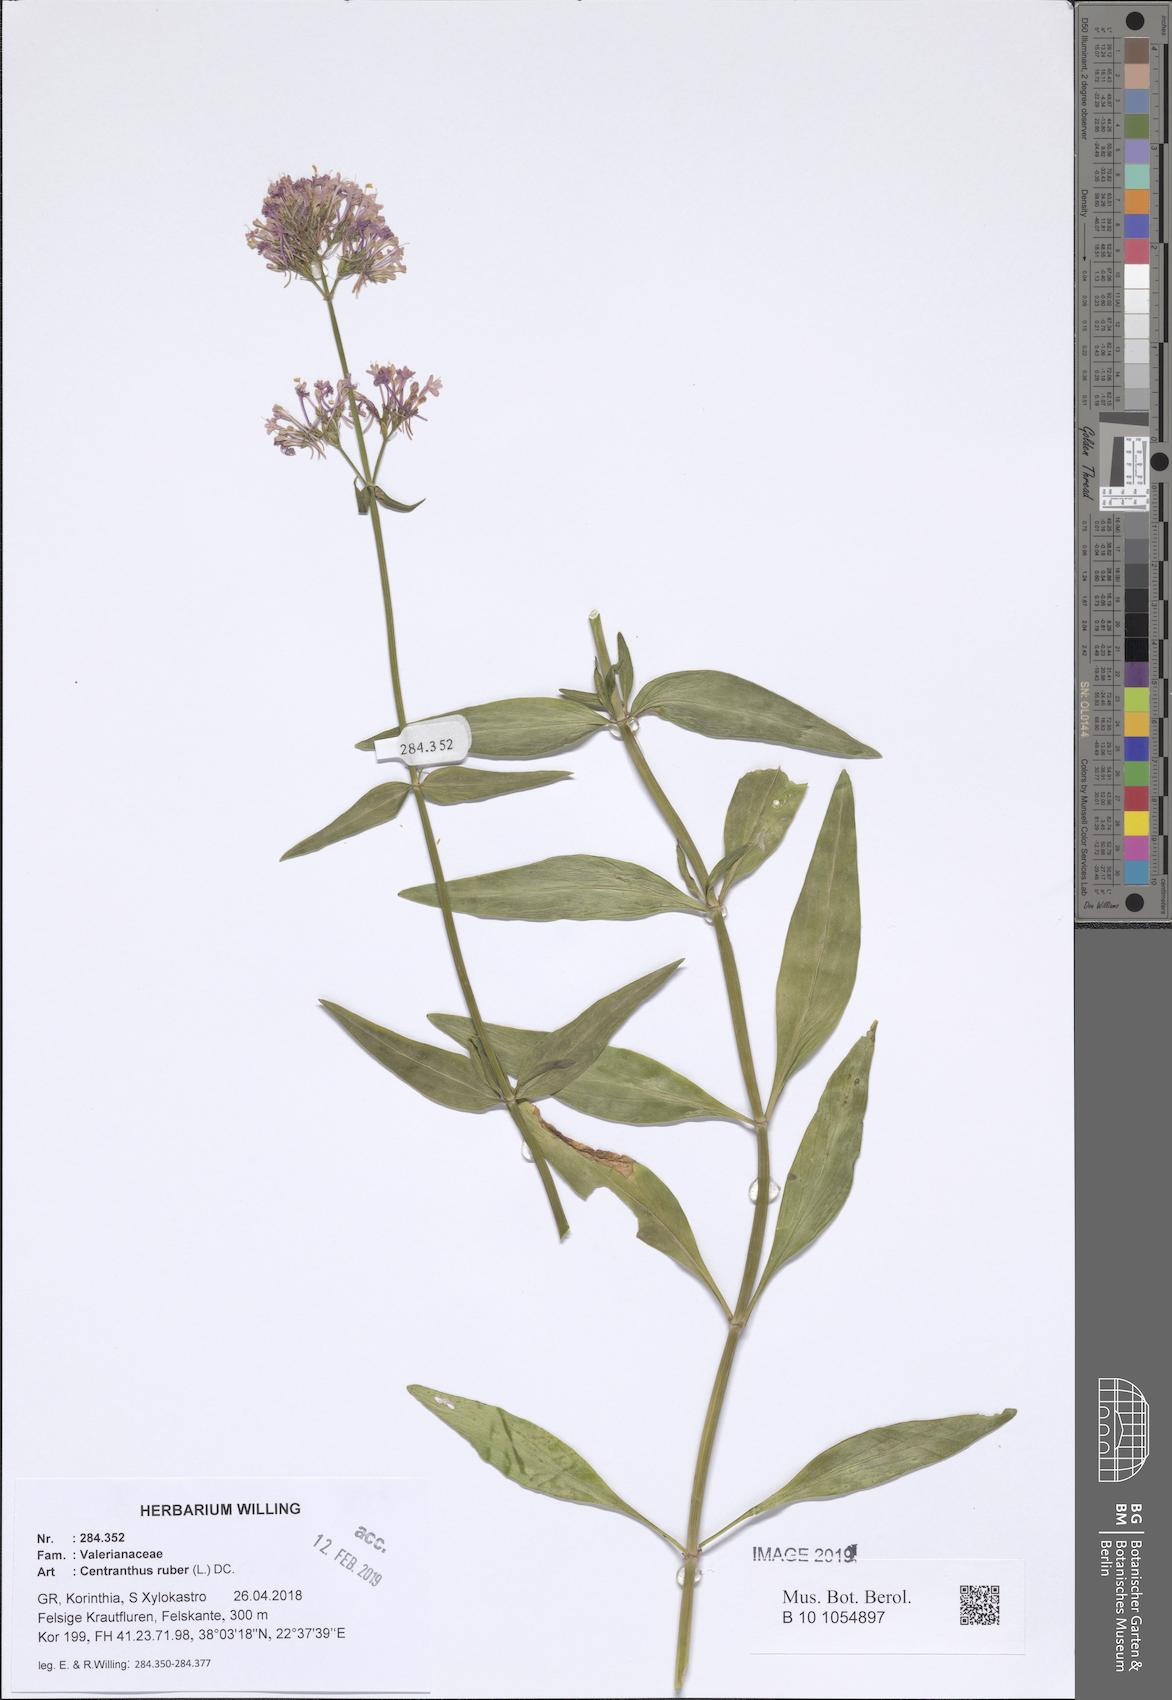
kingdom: Plantae
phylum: Tracheophyta
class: Magnoliopsida
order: Dipsacales
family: Caprifoliaceae
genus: Centranthus
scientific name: Centranthus ruber
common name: Red valerian
